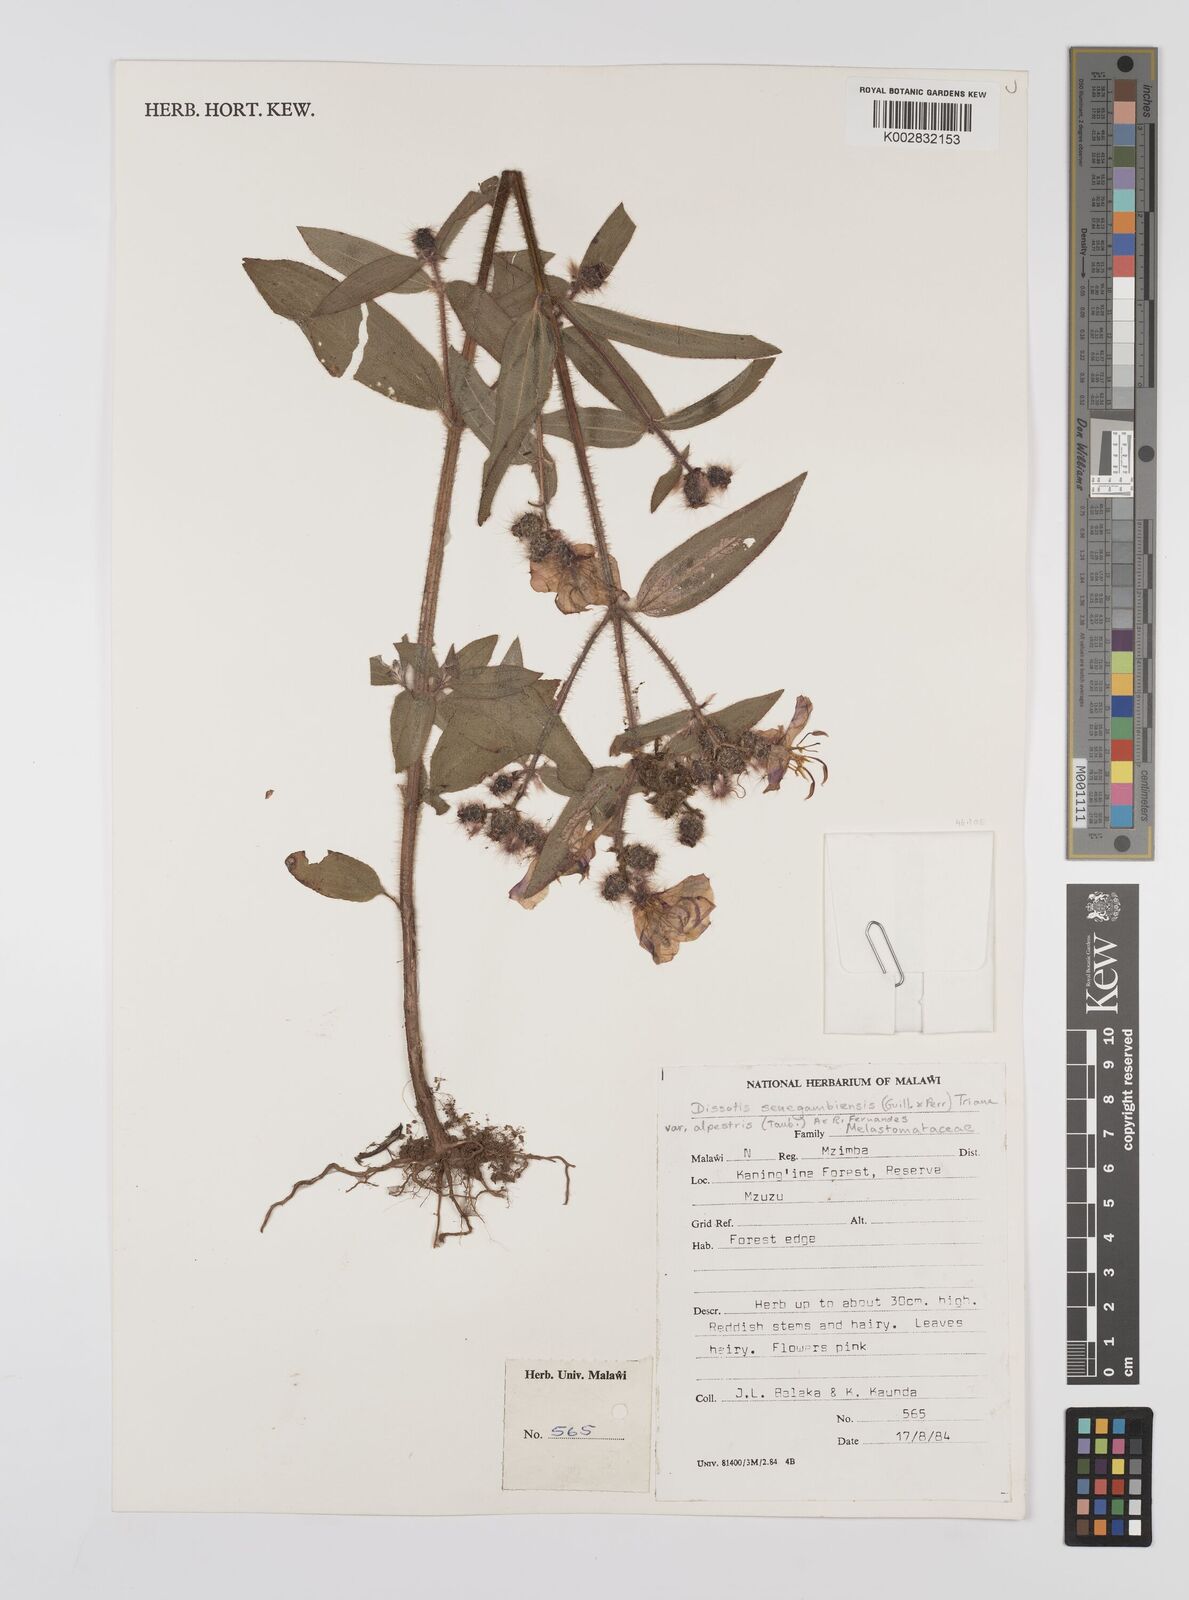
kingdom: Plantae
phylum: Tracheophyta
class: Magnoliopsida
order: Myrtales
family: Melastomataceae
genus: Nerophila
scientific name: Nerophila senegambiensis
